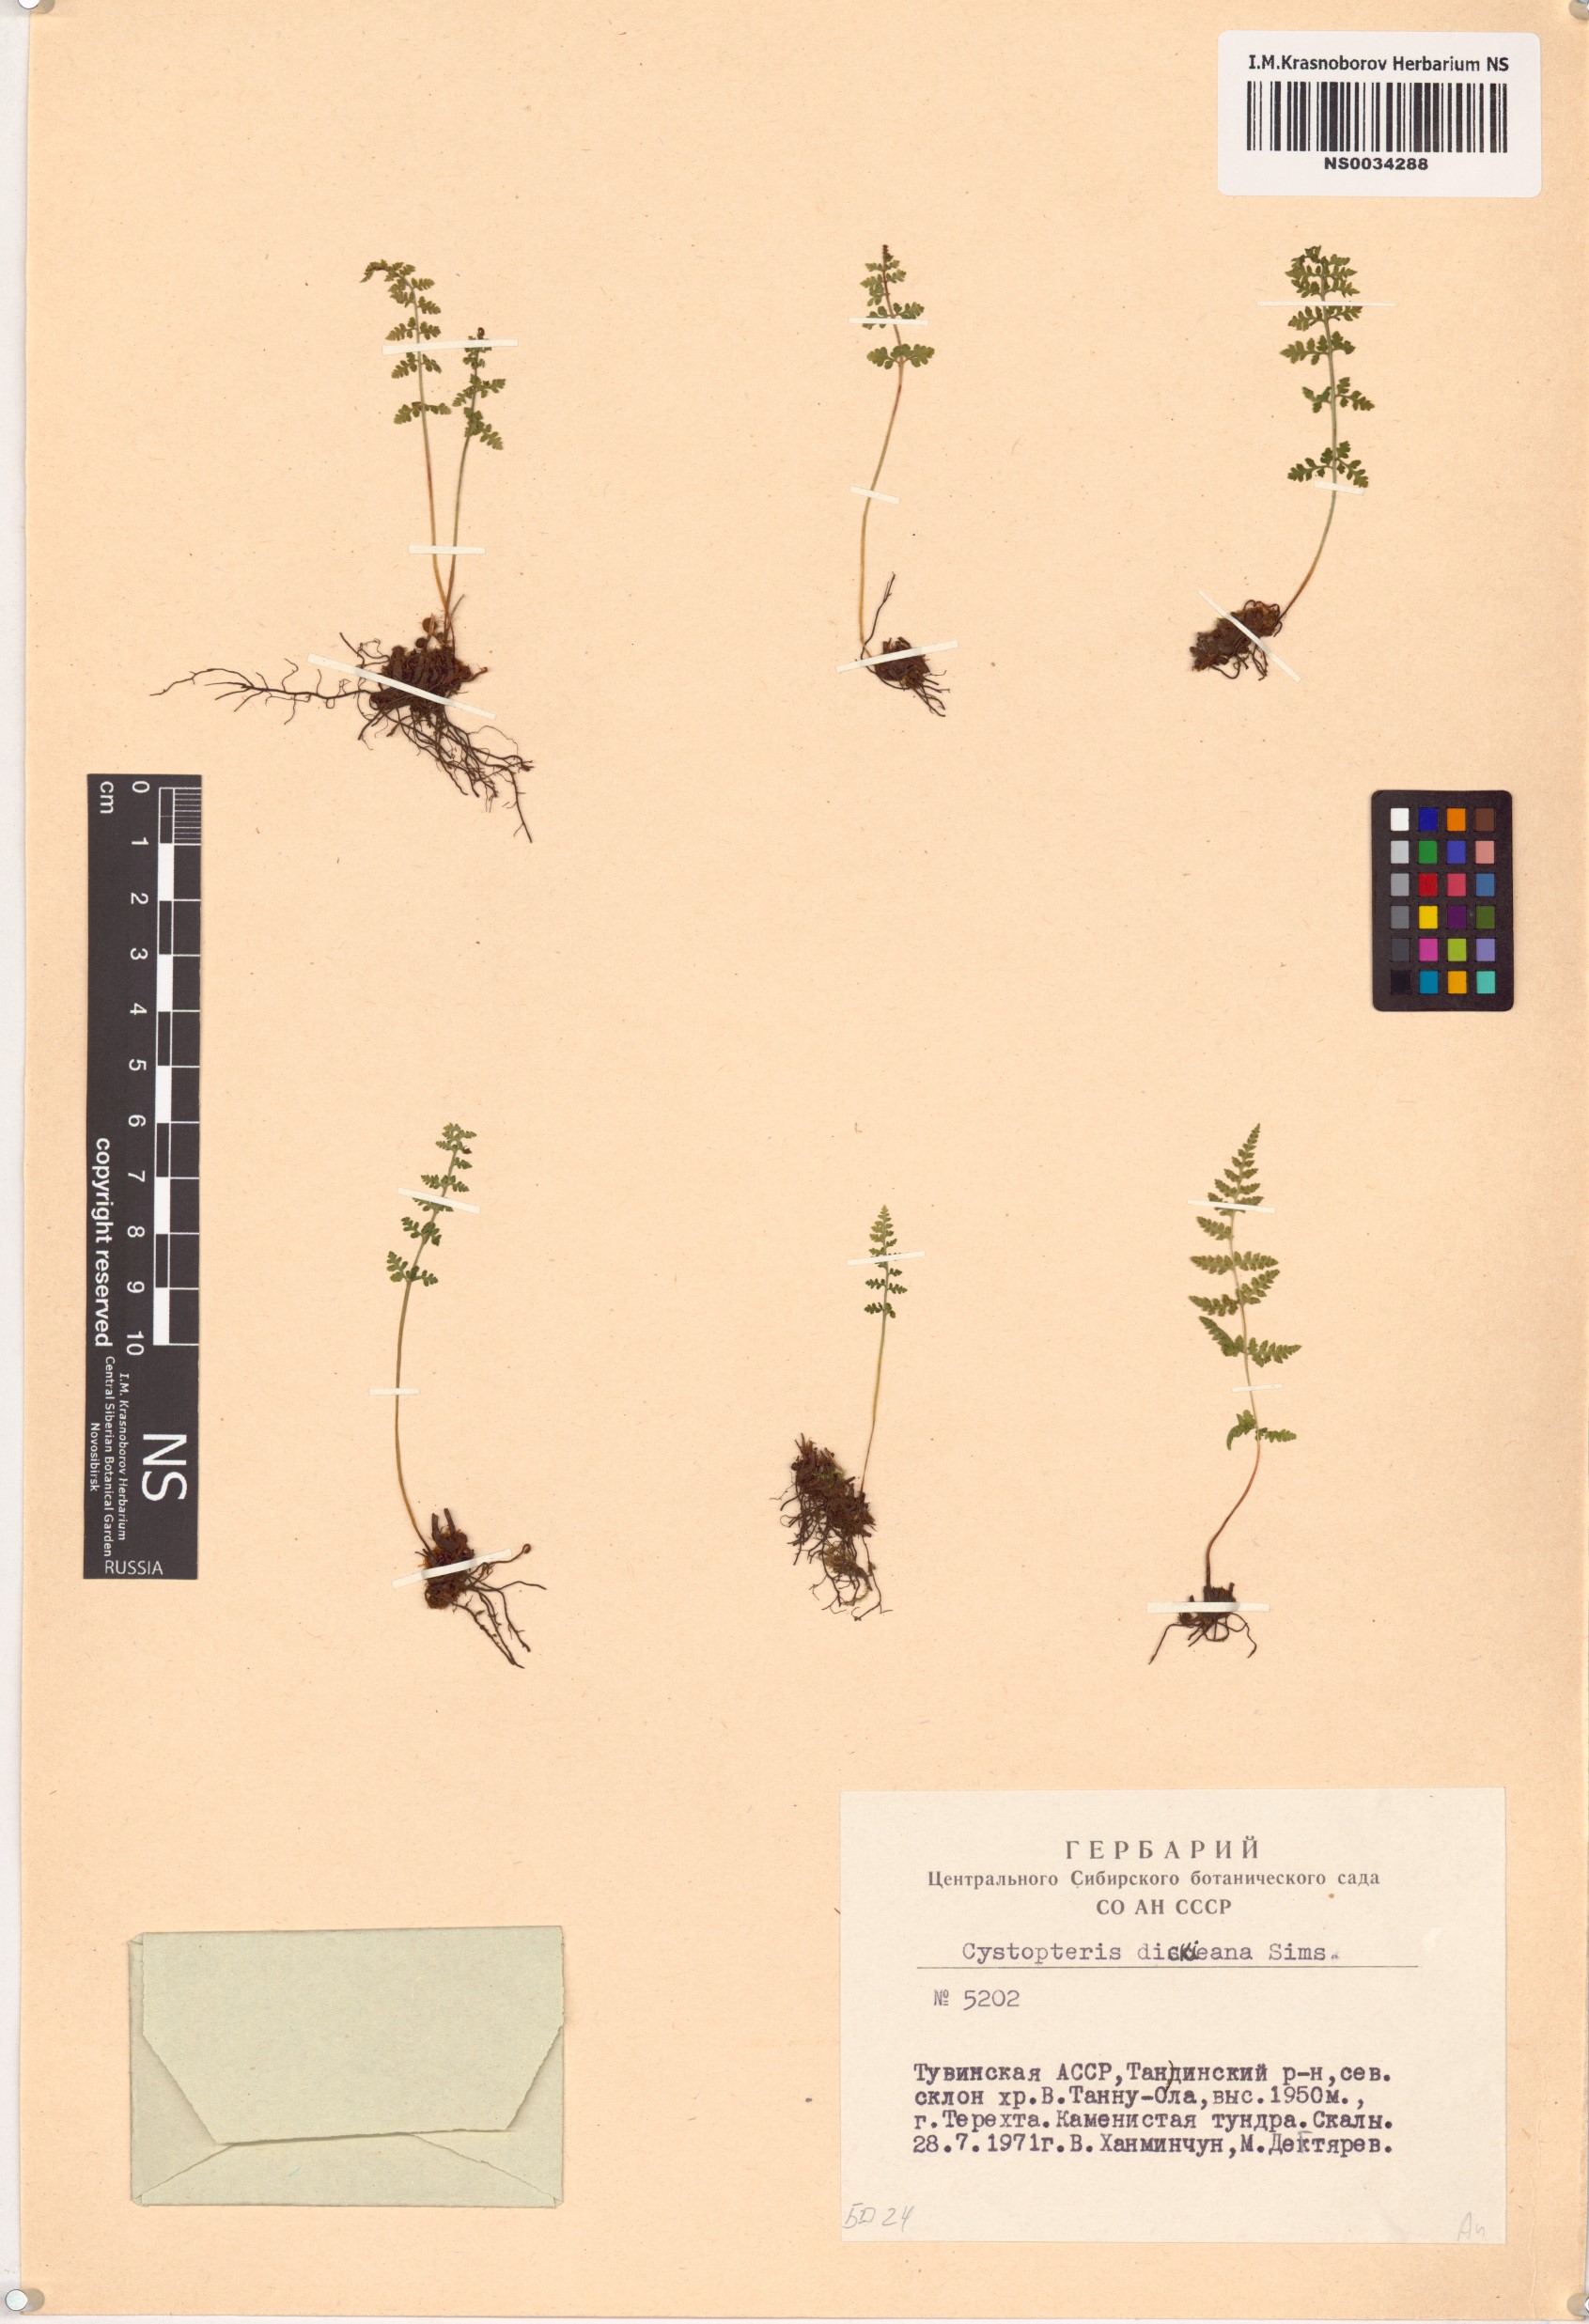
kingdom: Plantae
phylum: Tracheophyta
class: Polypodiopsida
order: Polypodiales
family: Cystopteridaceae
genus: Cystopteris
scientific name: Cystopteris dickieana
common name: Dickie's bladder-fern
